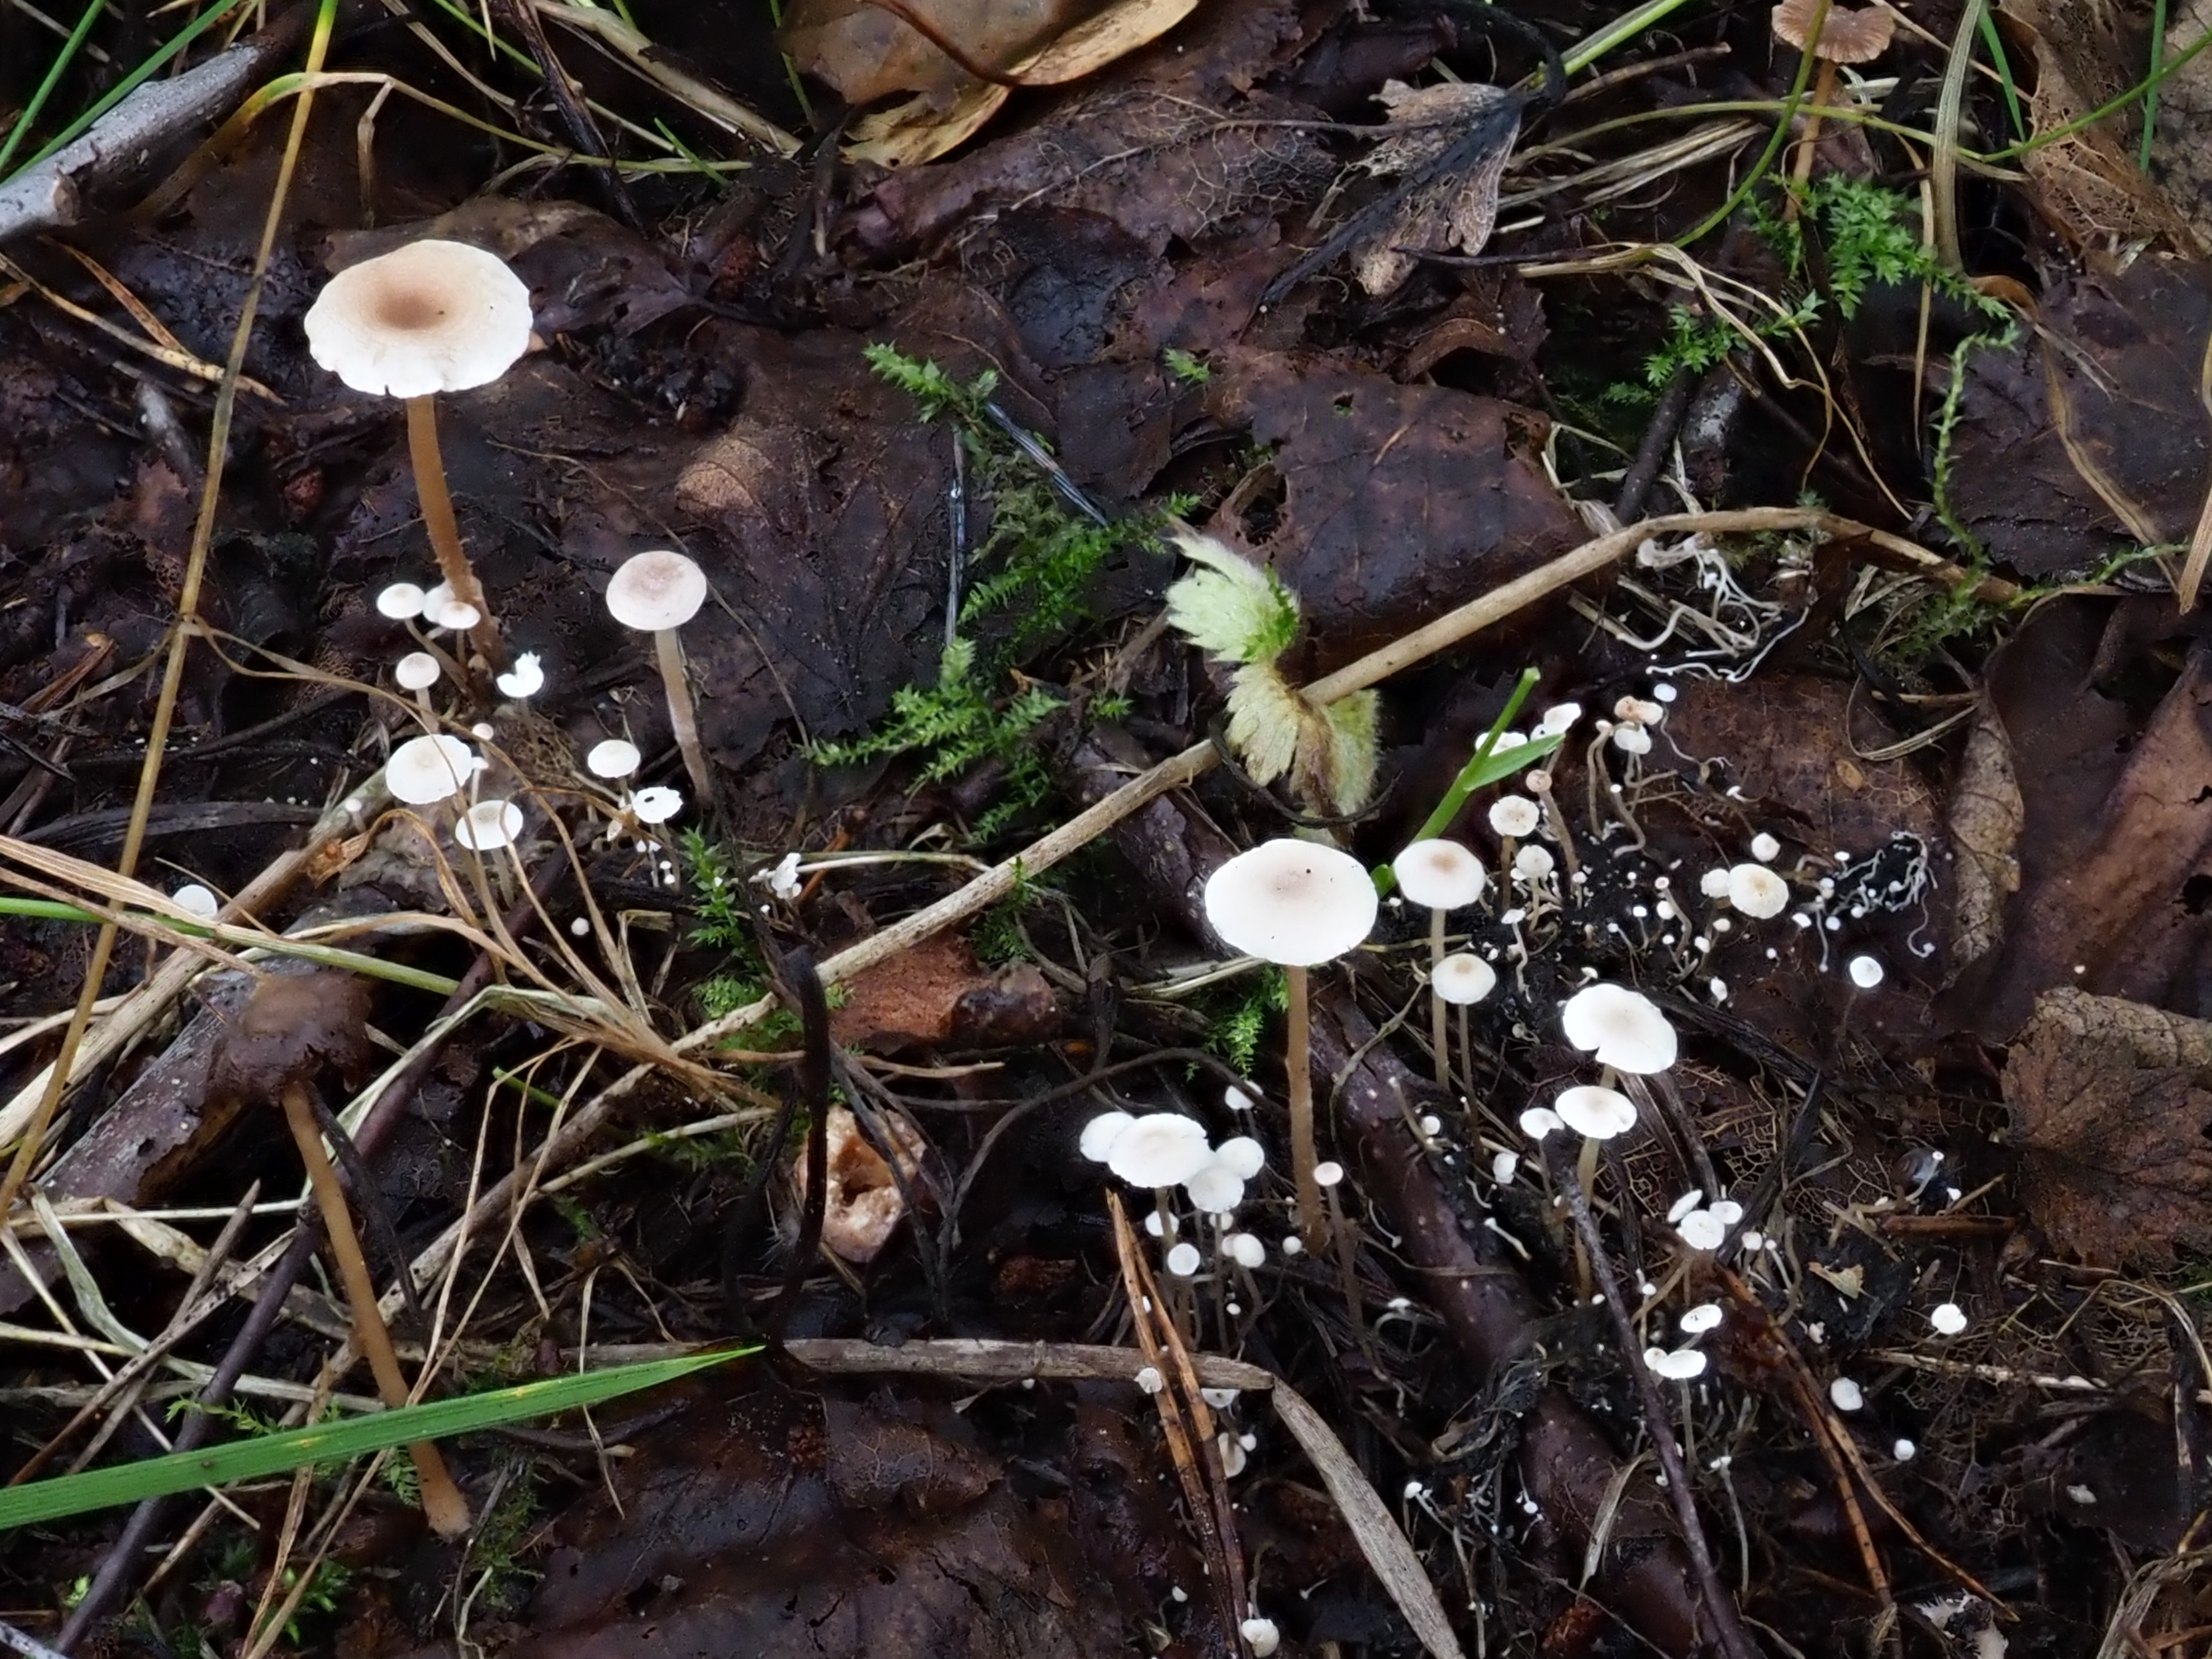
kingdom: Fungi
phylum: Basidiomycota
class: Agaricomycetes
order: Agaricales
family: Tricholomataceae
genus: Collybia
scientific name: Collybia cirrhata
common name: Piggyback shanklet
